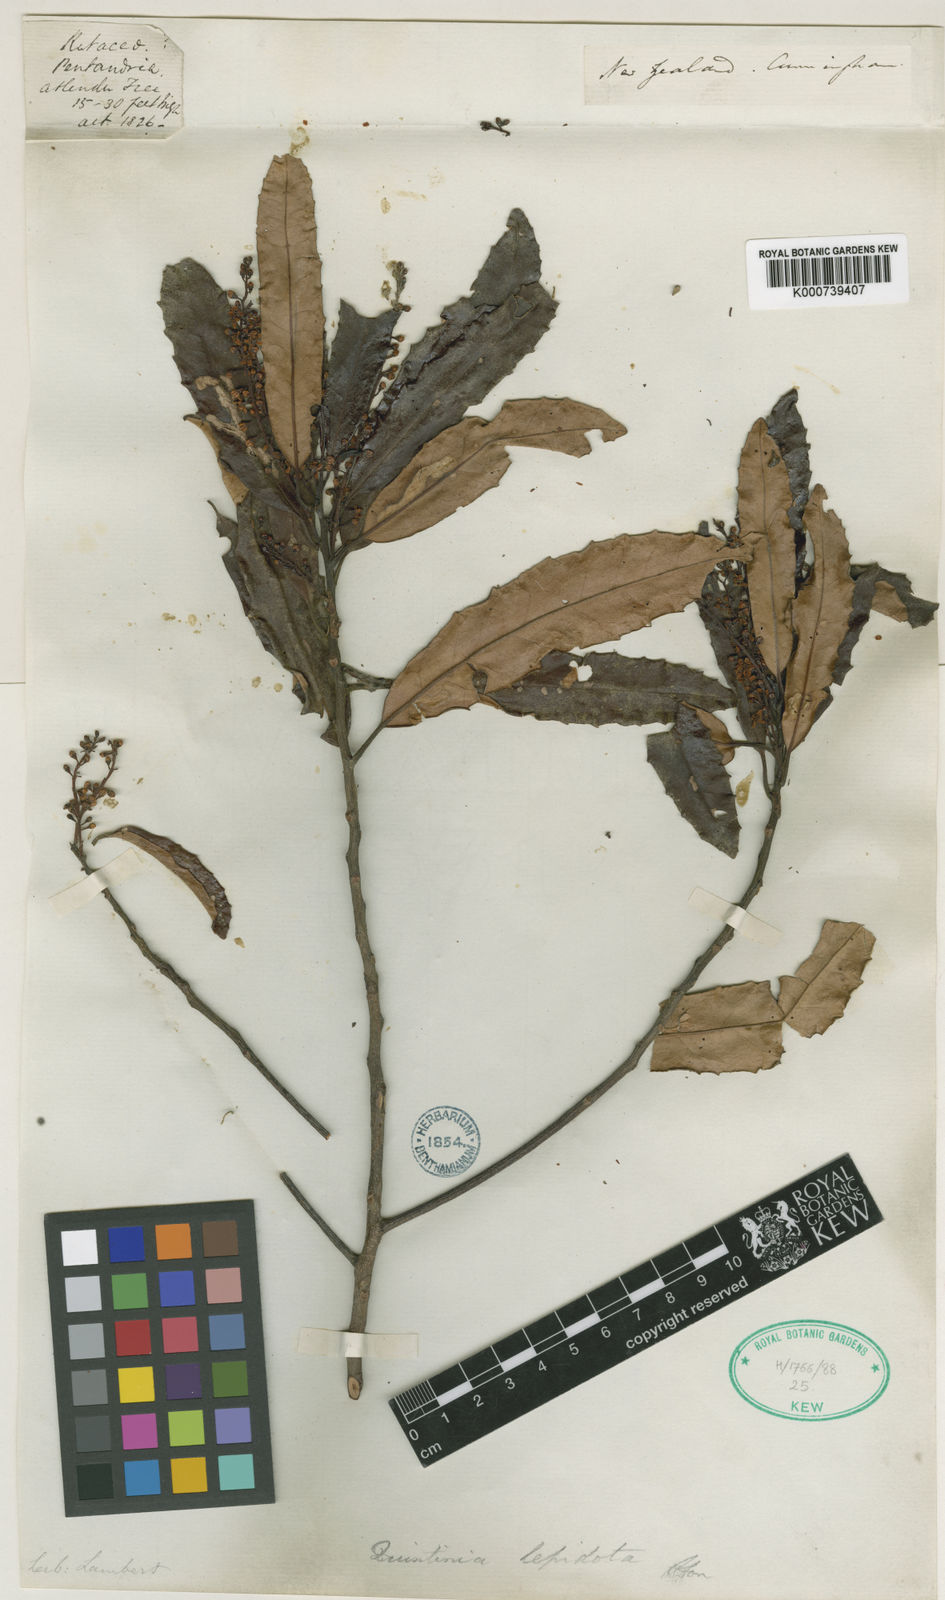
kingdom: Plantae
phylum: Tracheophyta
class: Magnoliopsida
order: Paracryphiales
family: Paracryphiaceae
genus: Quintinia
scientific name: Quintinia serrata
